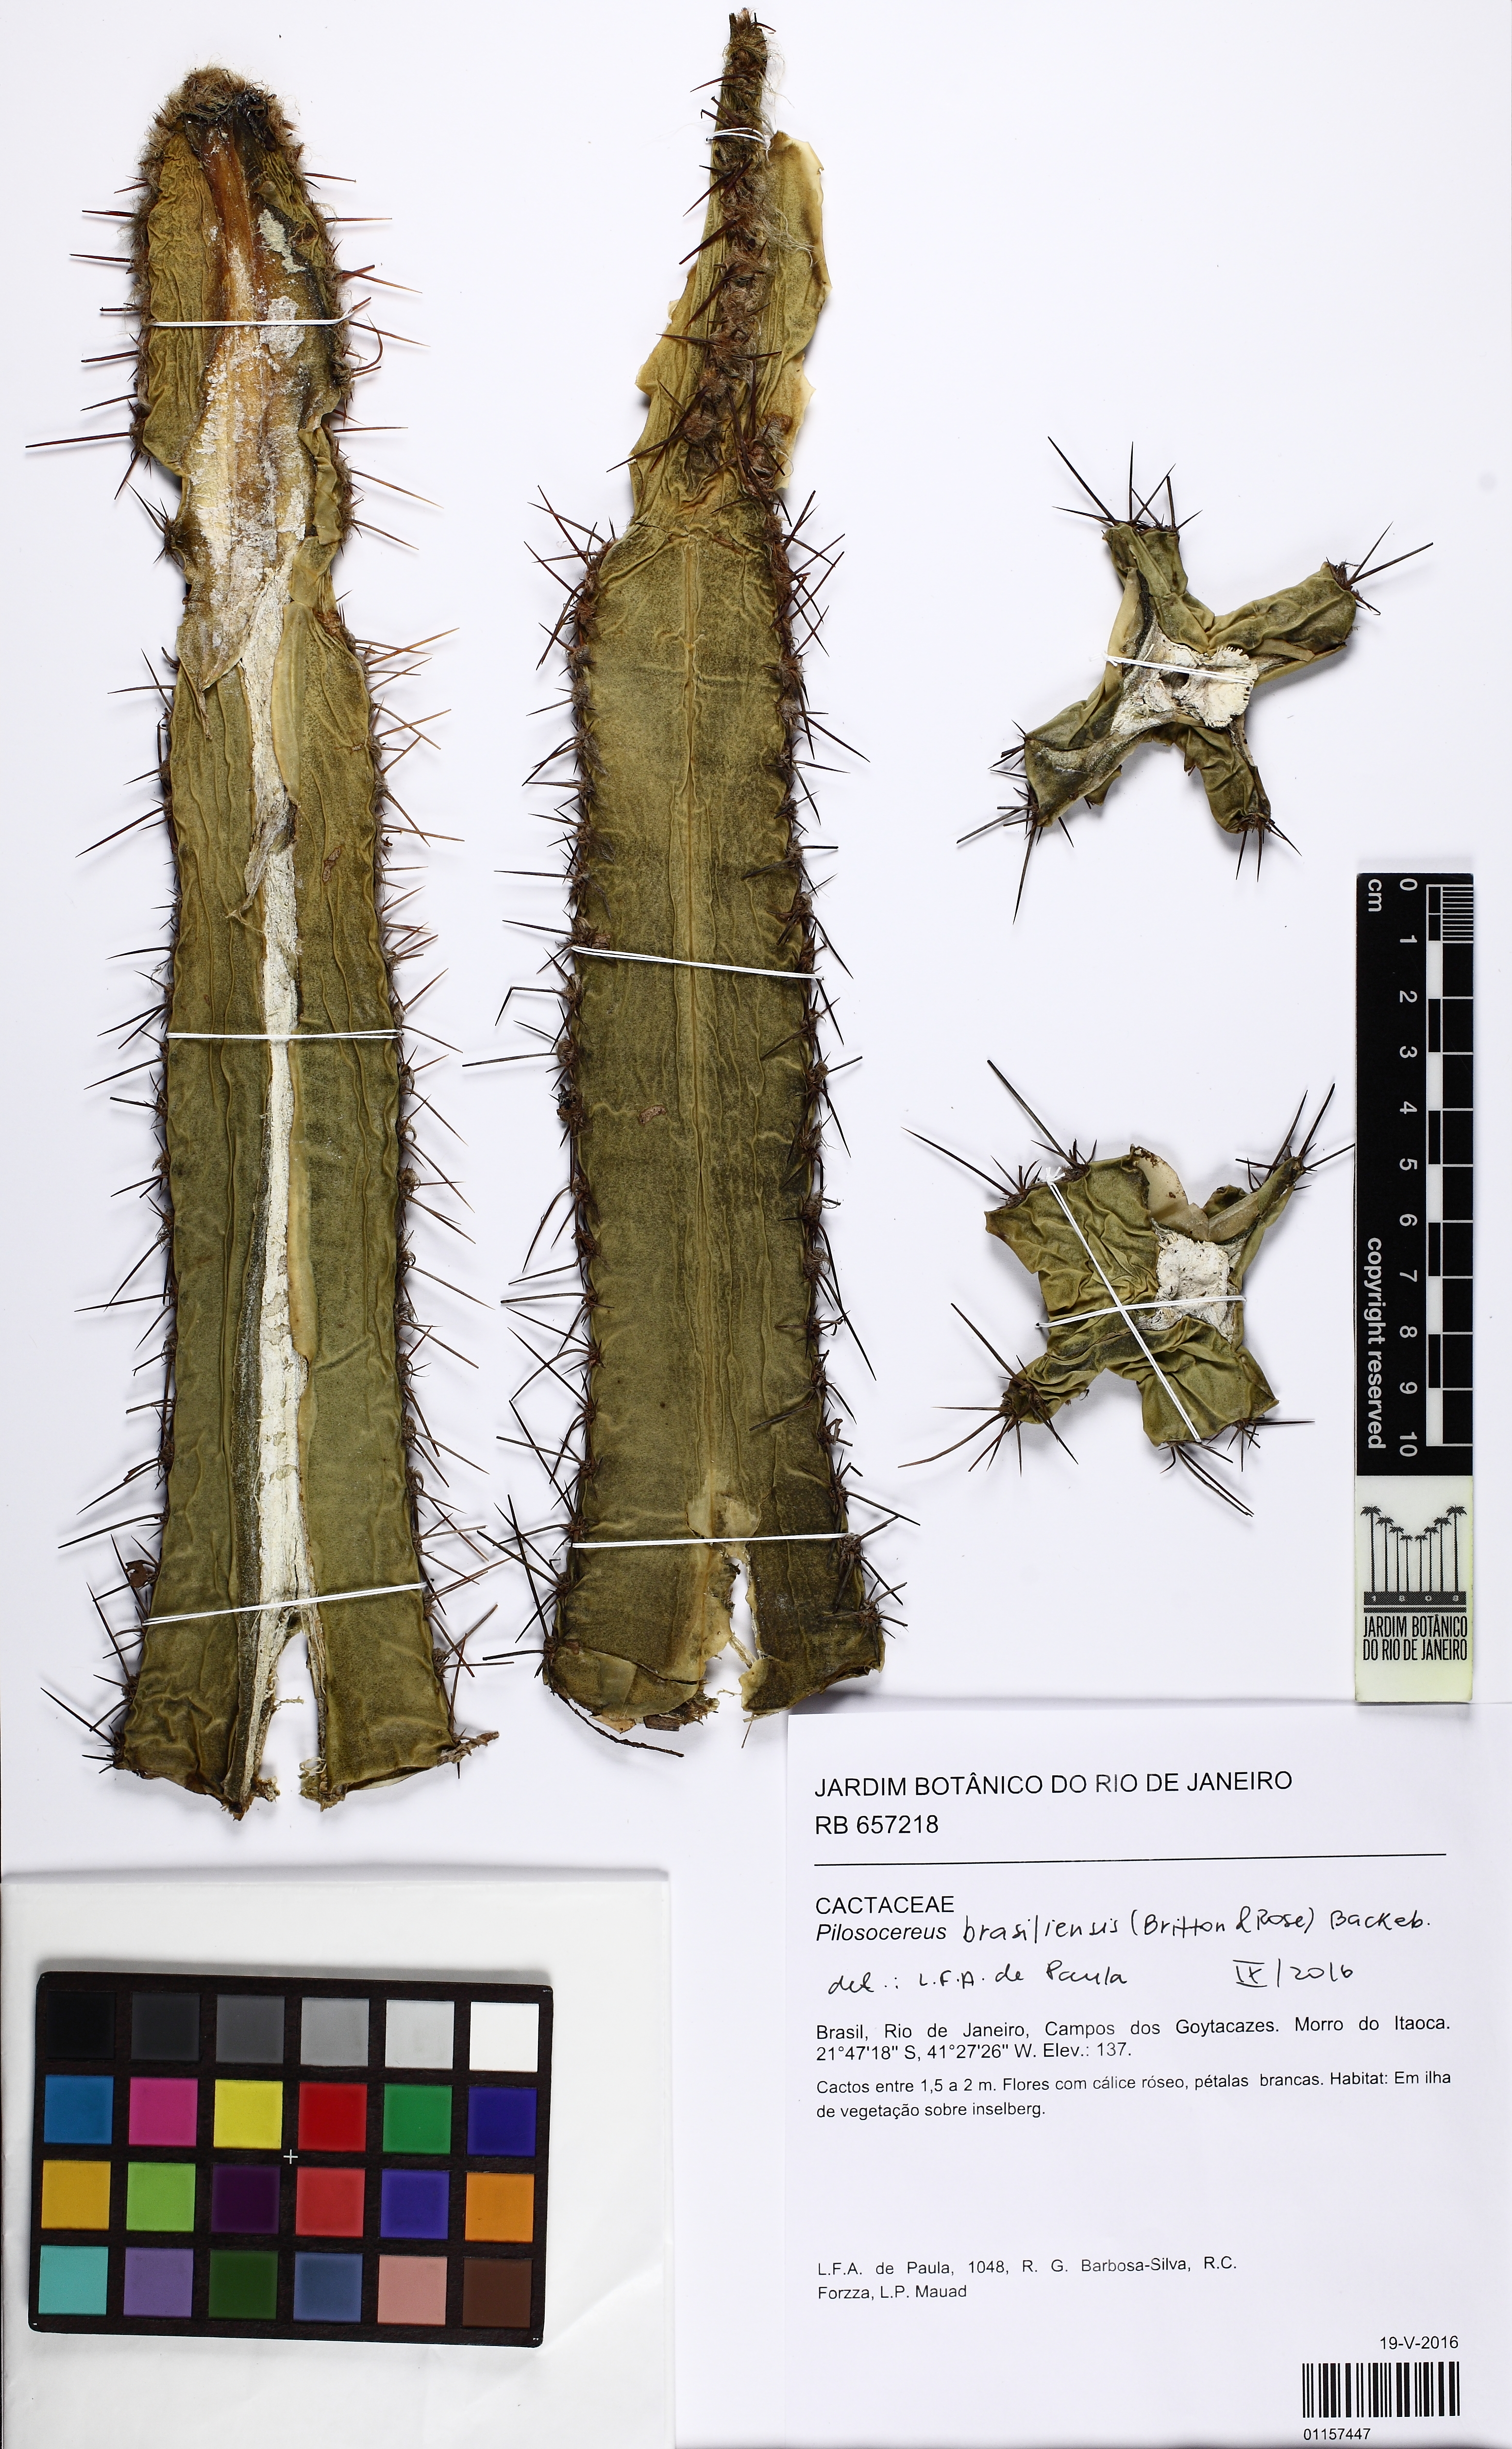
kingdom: Plantae
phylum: Tracheophyta
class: Magnoliopsida
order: Caryophyllales
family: Cactaceae
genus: Pilosocereus
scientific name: Pilosocereus brasiliensis
